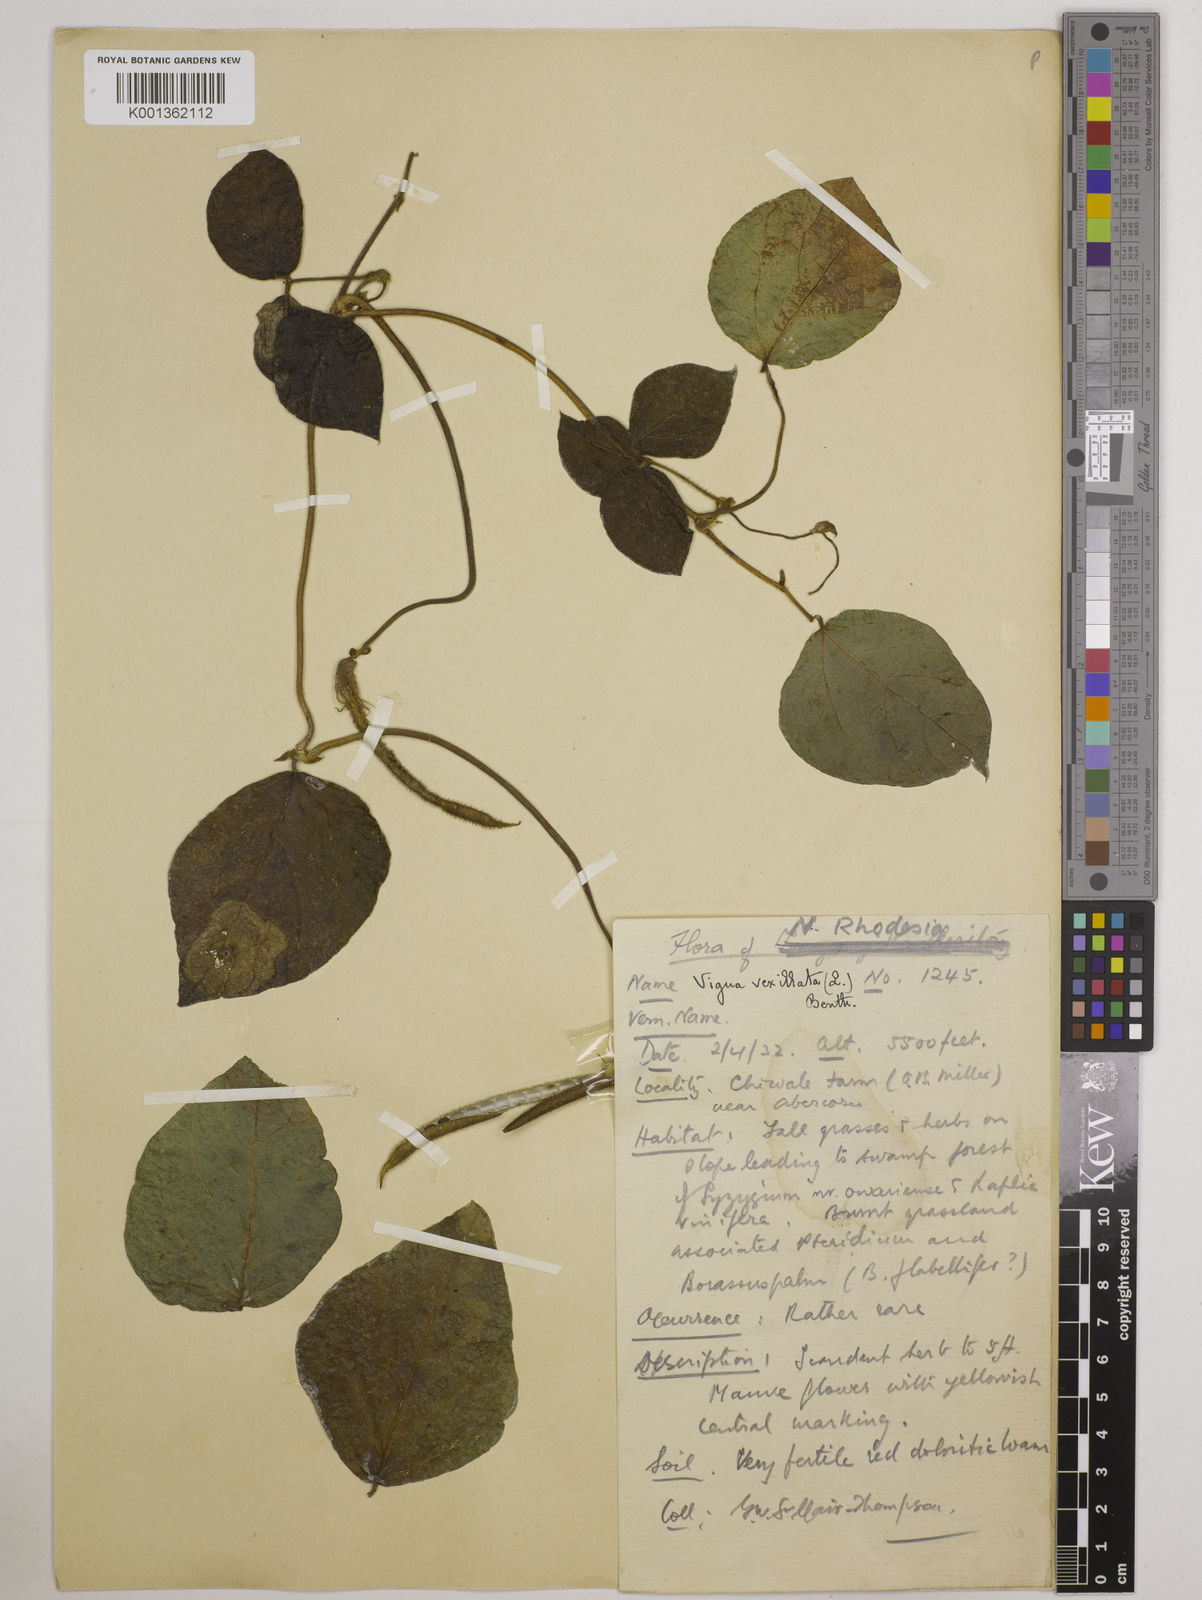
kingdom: Plantae
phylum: Tracheophyta
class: Magnoliopsida
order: Fabales
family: Fabaceae
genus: Vigna
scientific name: Vigna vexillata
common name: Zombi pea
